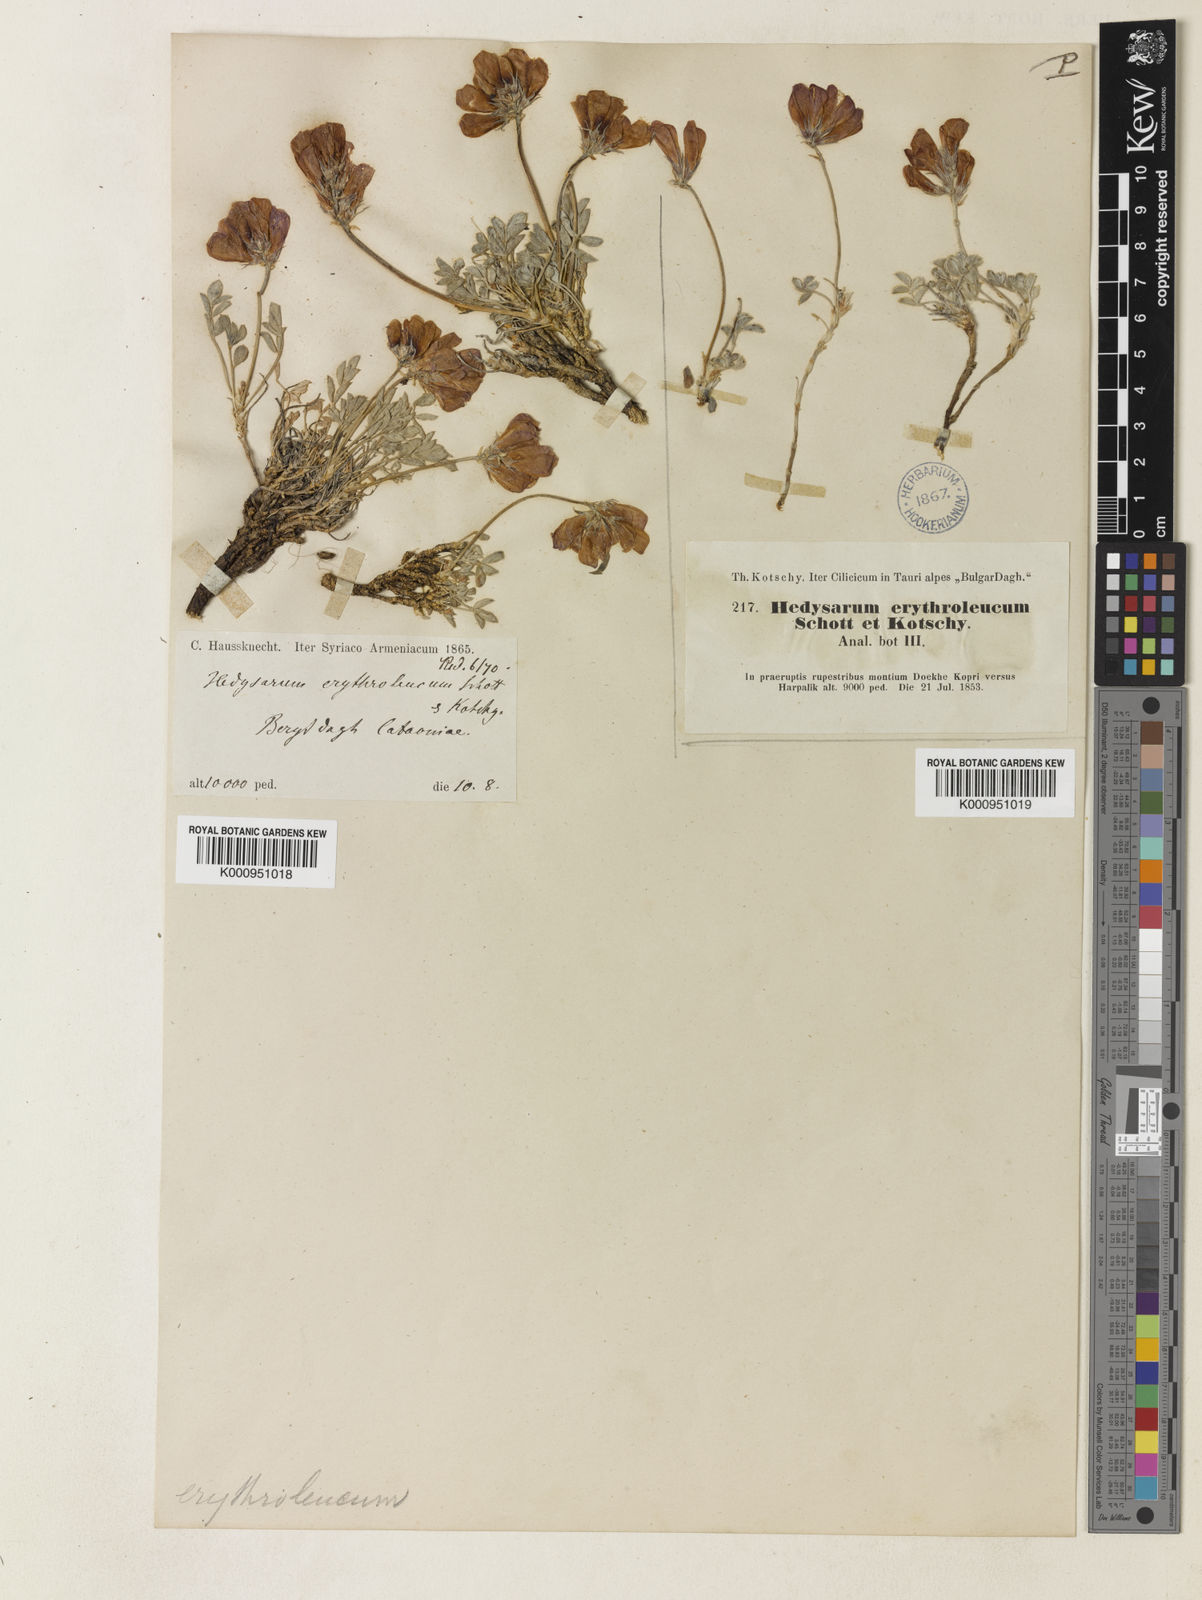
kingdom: Plantae
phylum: Tracheophyta
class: Magnoliopsida
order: Fabales
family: Fabaceae
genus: Hedysarum
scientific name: Hedysarum erythroleucum
